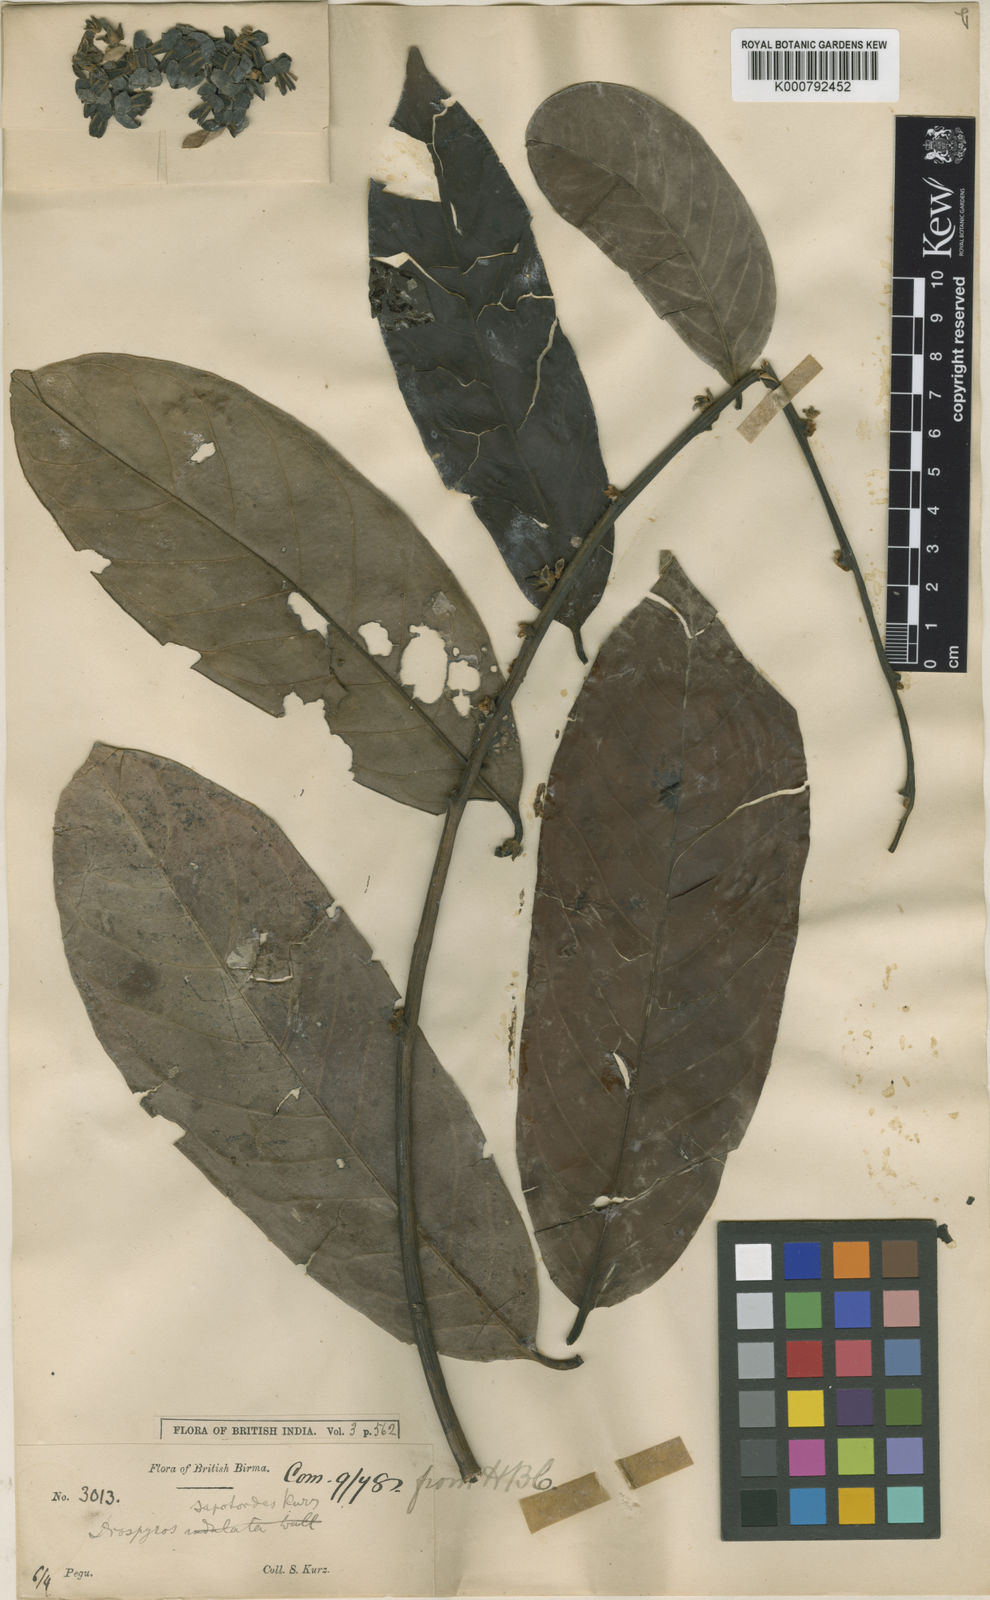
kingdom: Plantae
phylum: Tracheophyta
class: Magnoliopsida
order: Ericales
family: Ebenaceae
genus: Diospyros
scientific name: Diospyros oblonga
